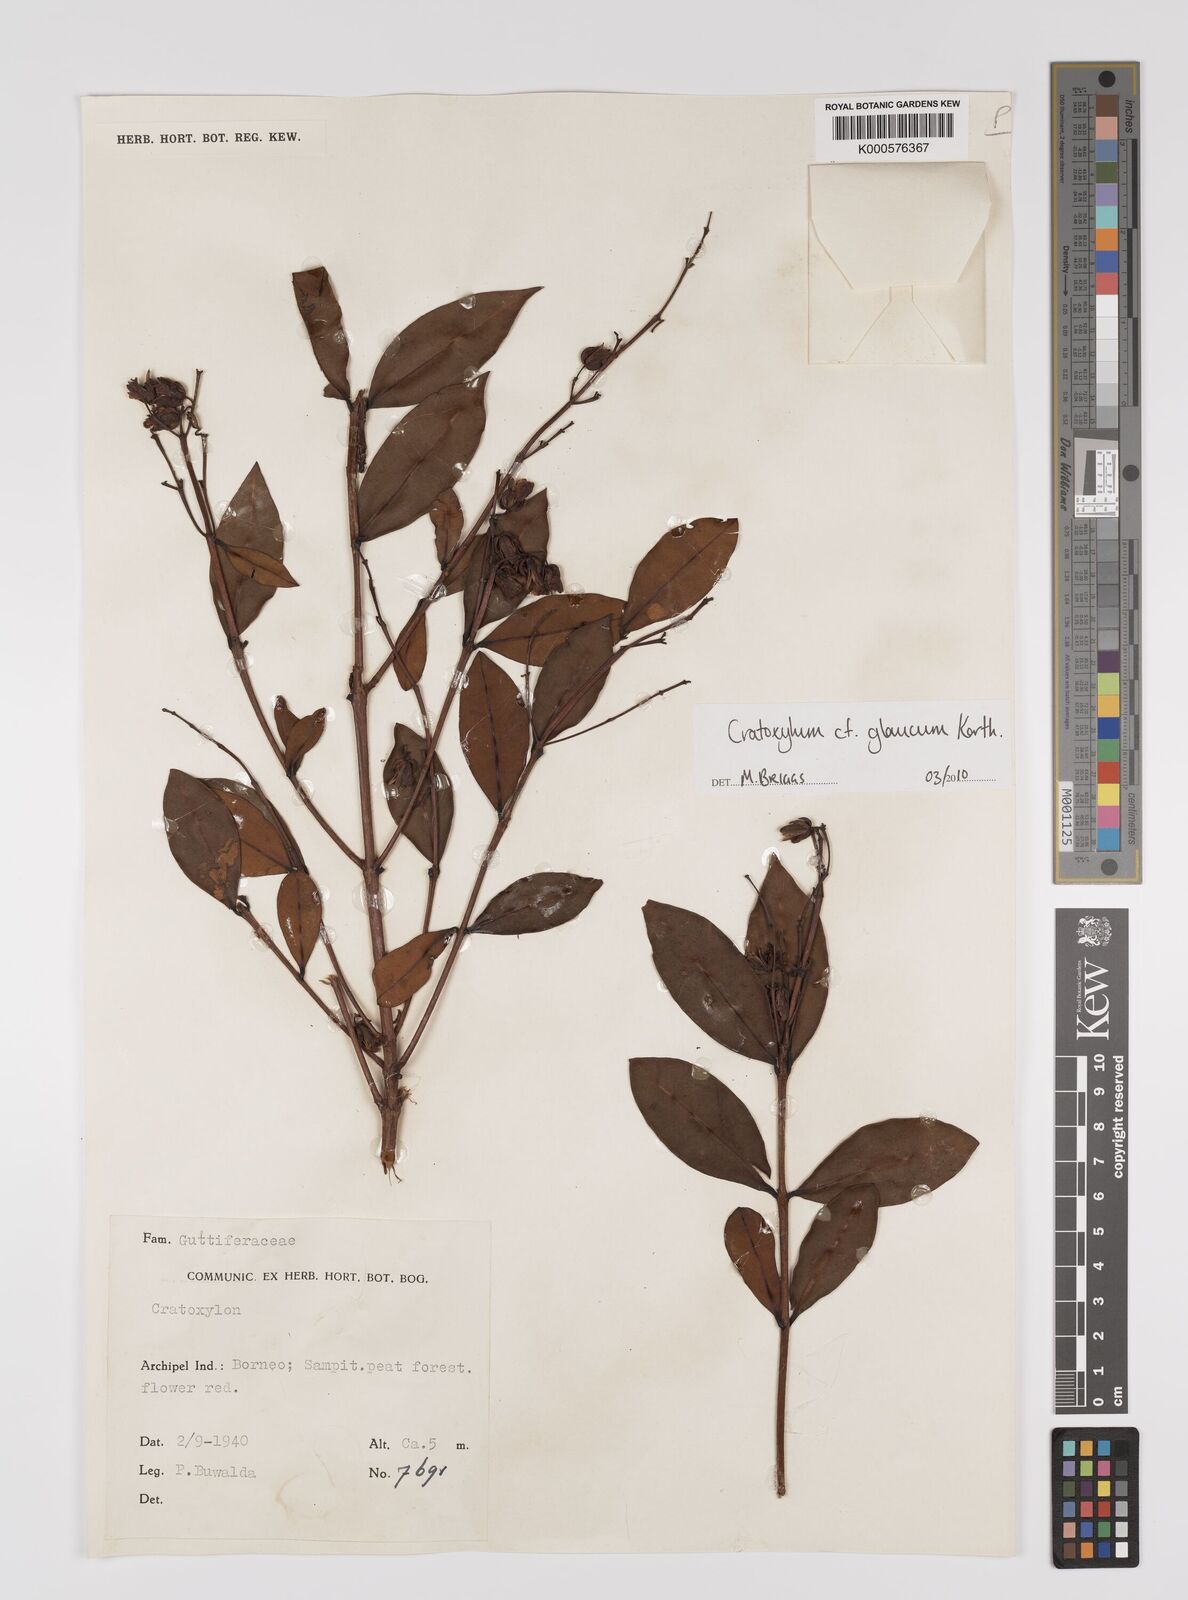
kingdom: Plantae
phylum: Tracheophyta
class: Magnoliopsida
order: Malpighiales
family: Hypericaceae
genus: Cratoxylum
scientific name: Cratoxylum glaucum
